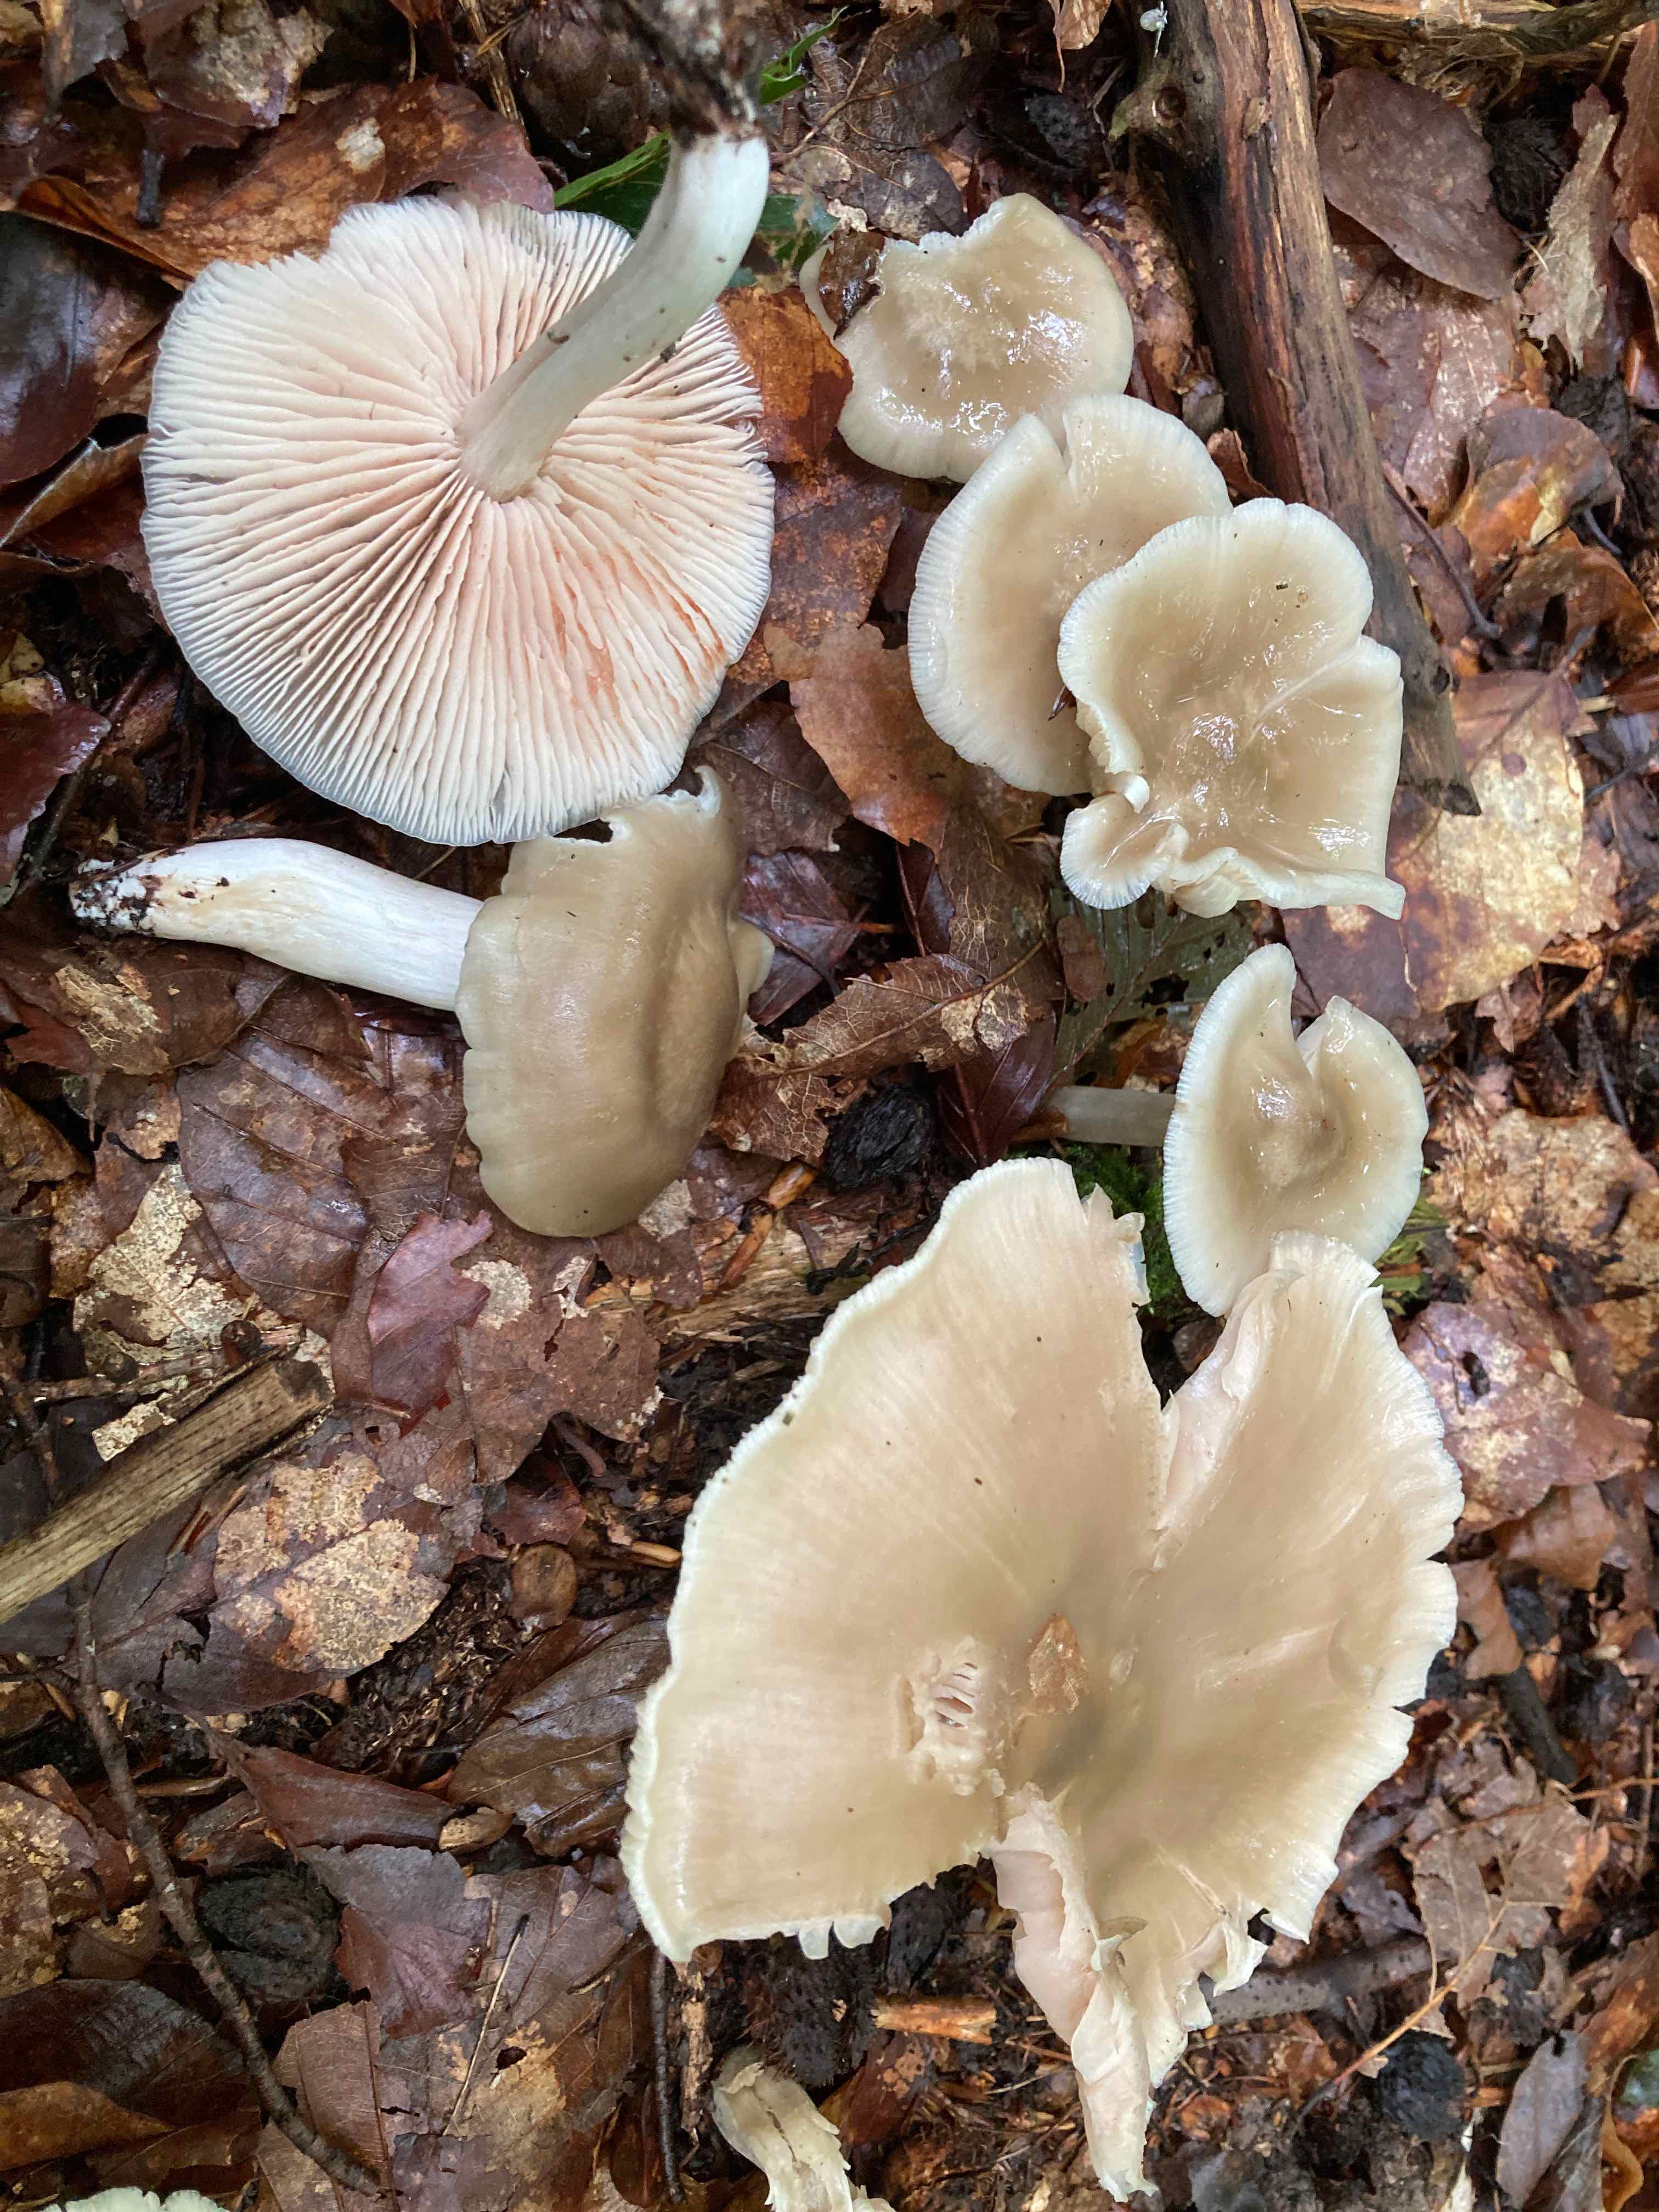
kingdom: Fungi
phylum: Basidiomycota
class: Agaricomycetes
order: Agaricales
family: Entolomataceae
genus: Entoloma
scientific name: Entoloma rhodopolium
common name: skov-rødblad
